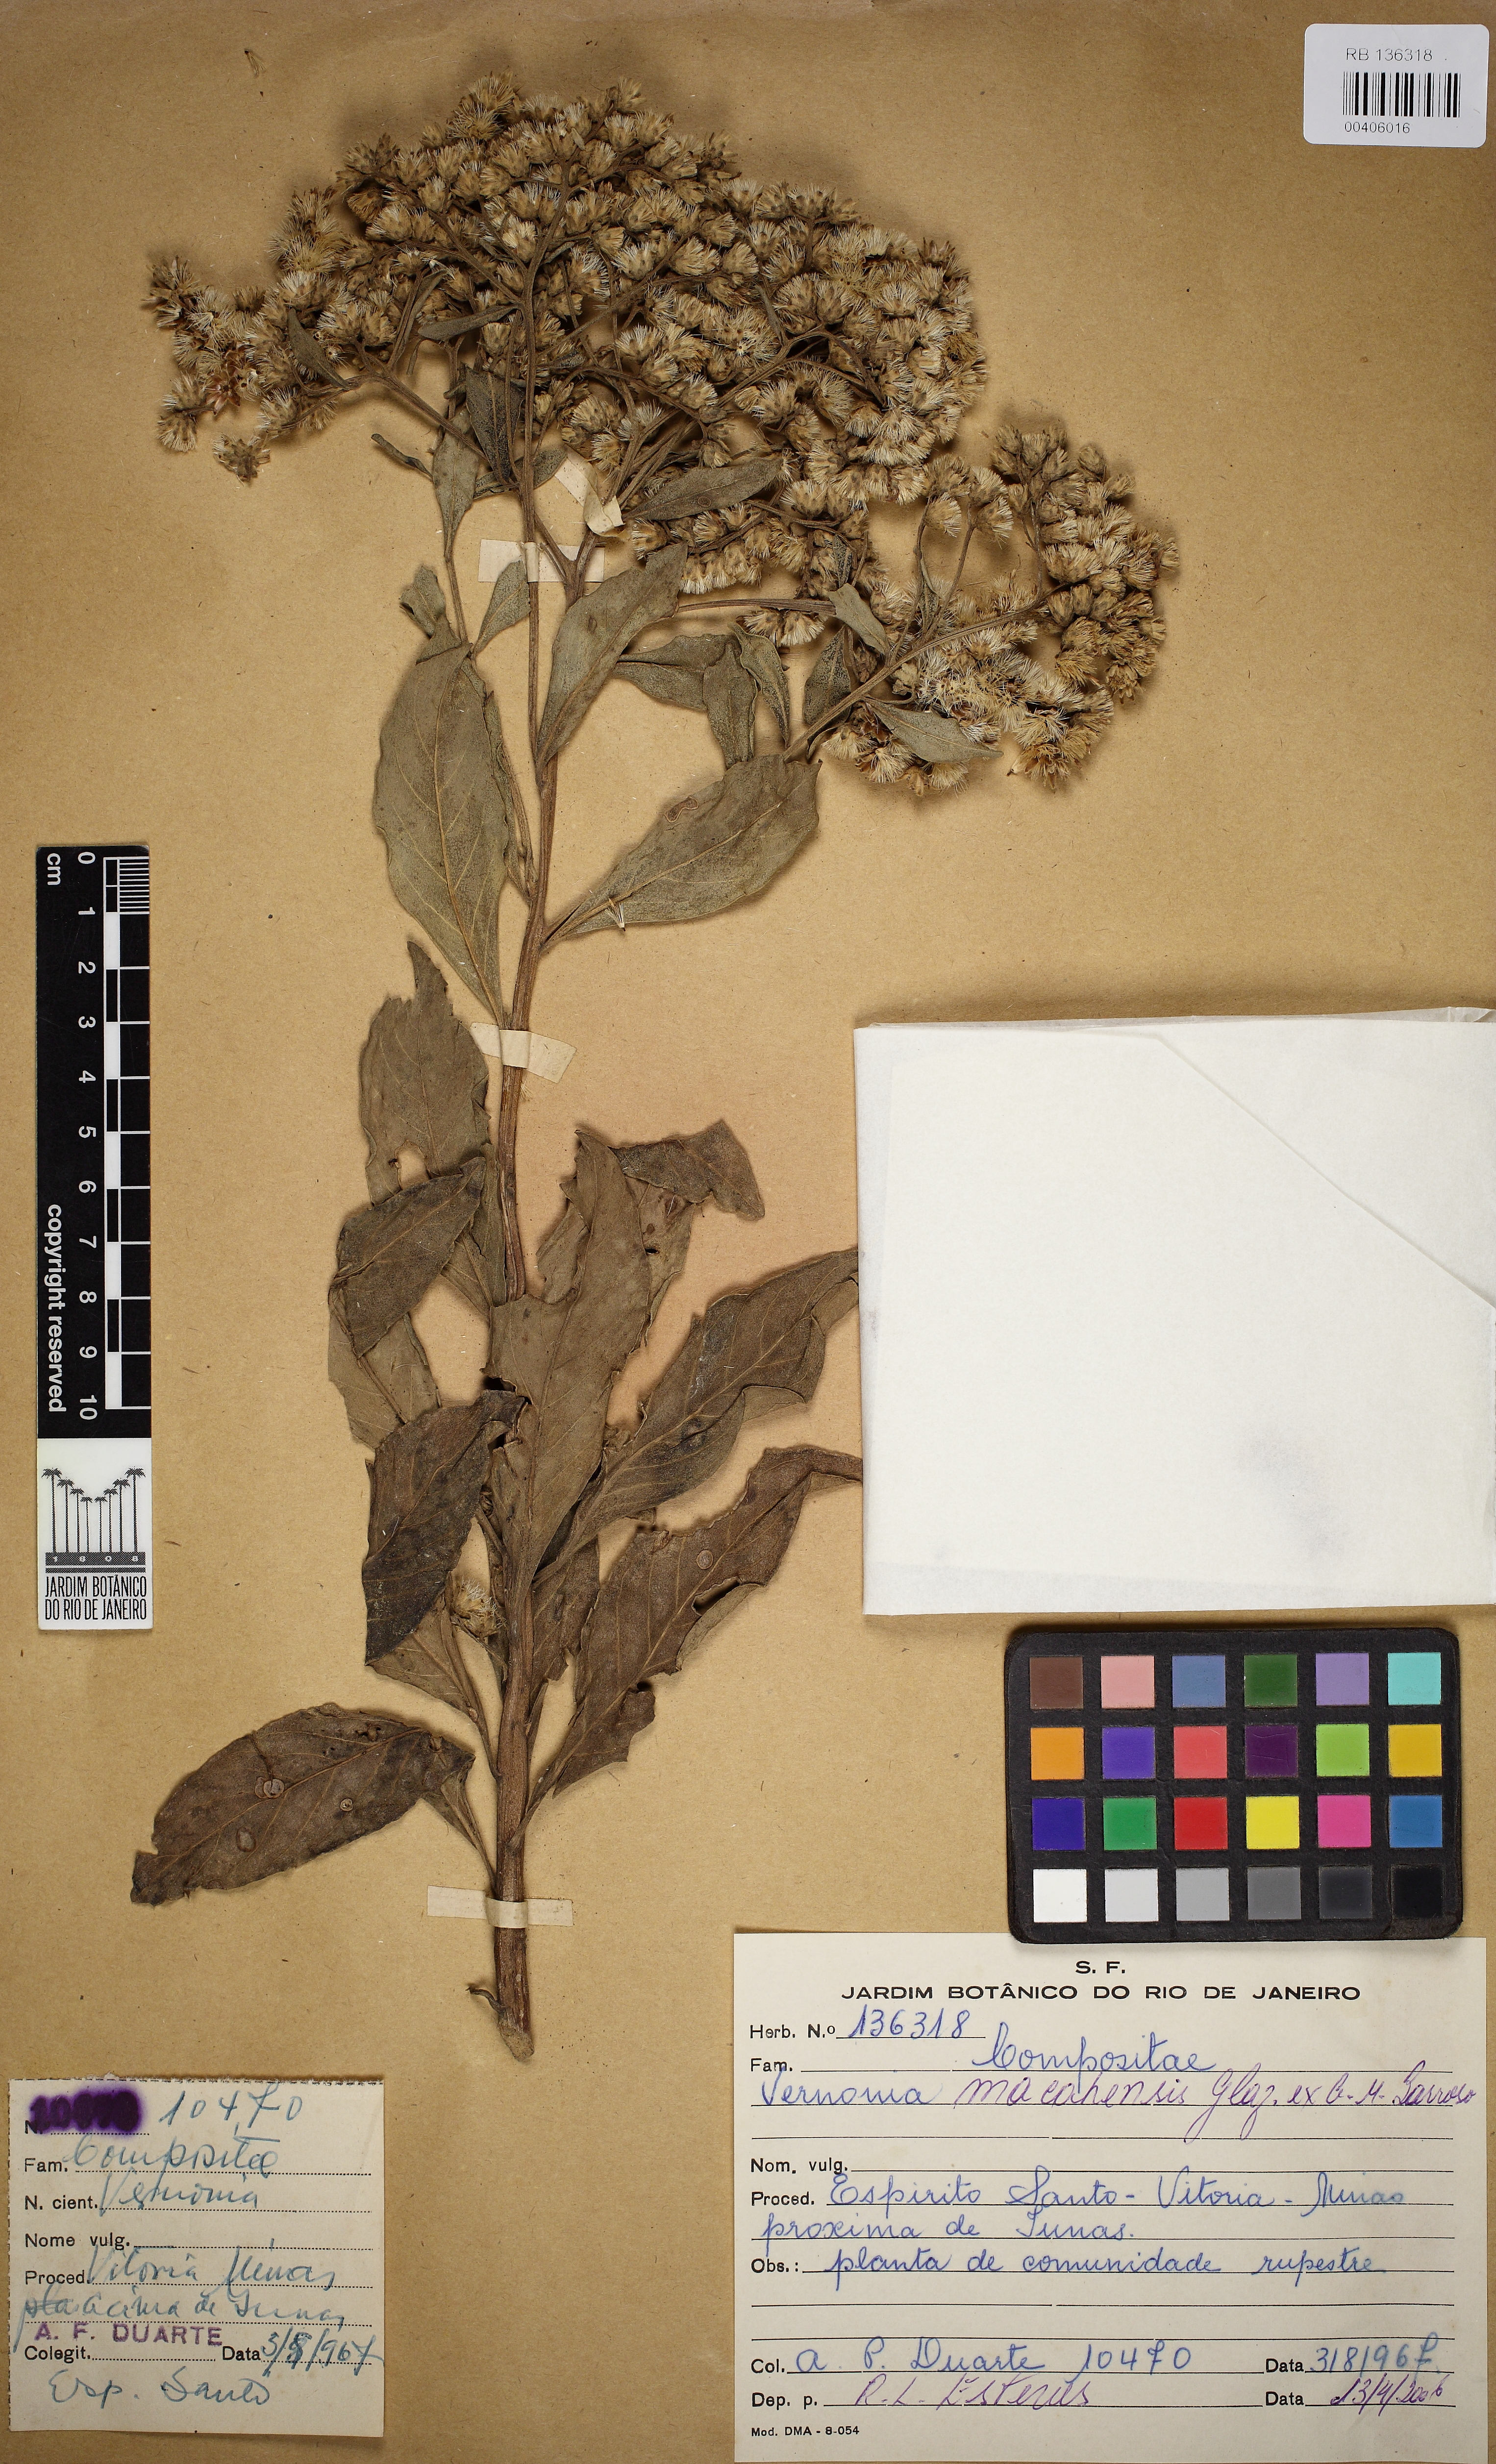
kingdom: Plantae
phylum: Tracheophyta
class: Magnoliopsida
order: Asterales
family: Asteraceae
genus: Lepidaploa
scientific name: Lepidaploa macahensis
